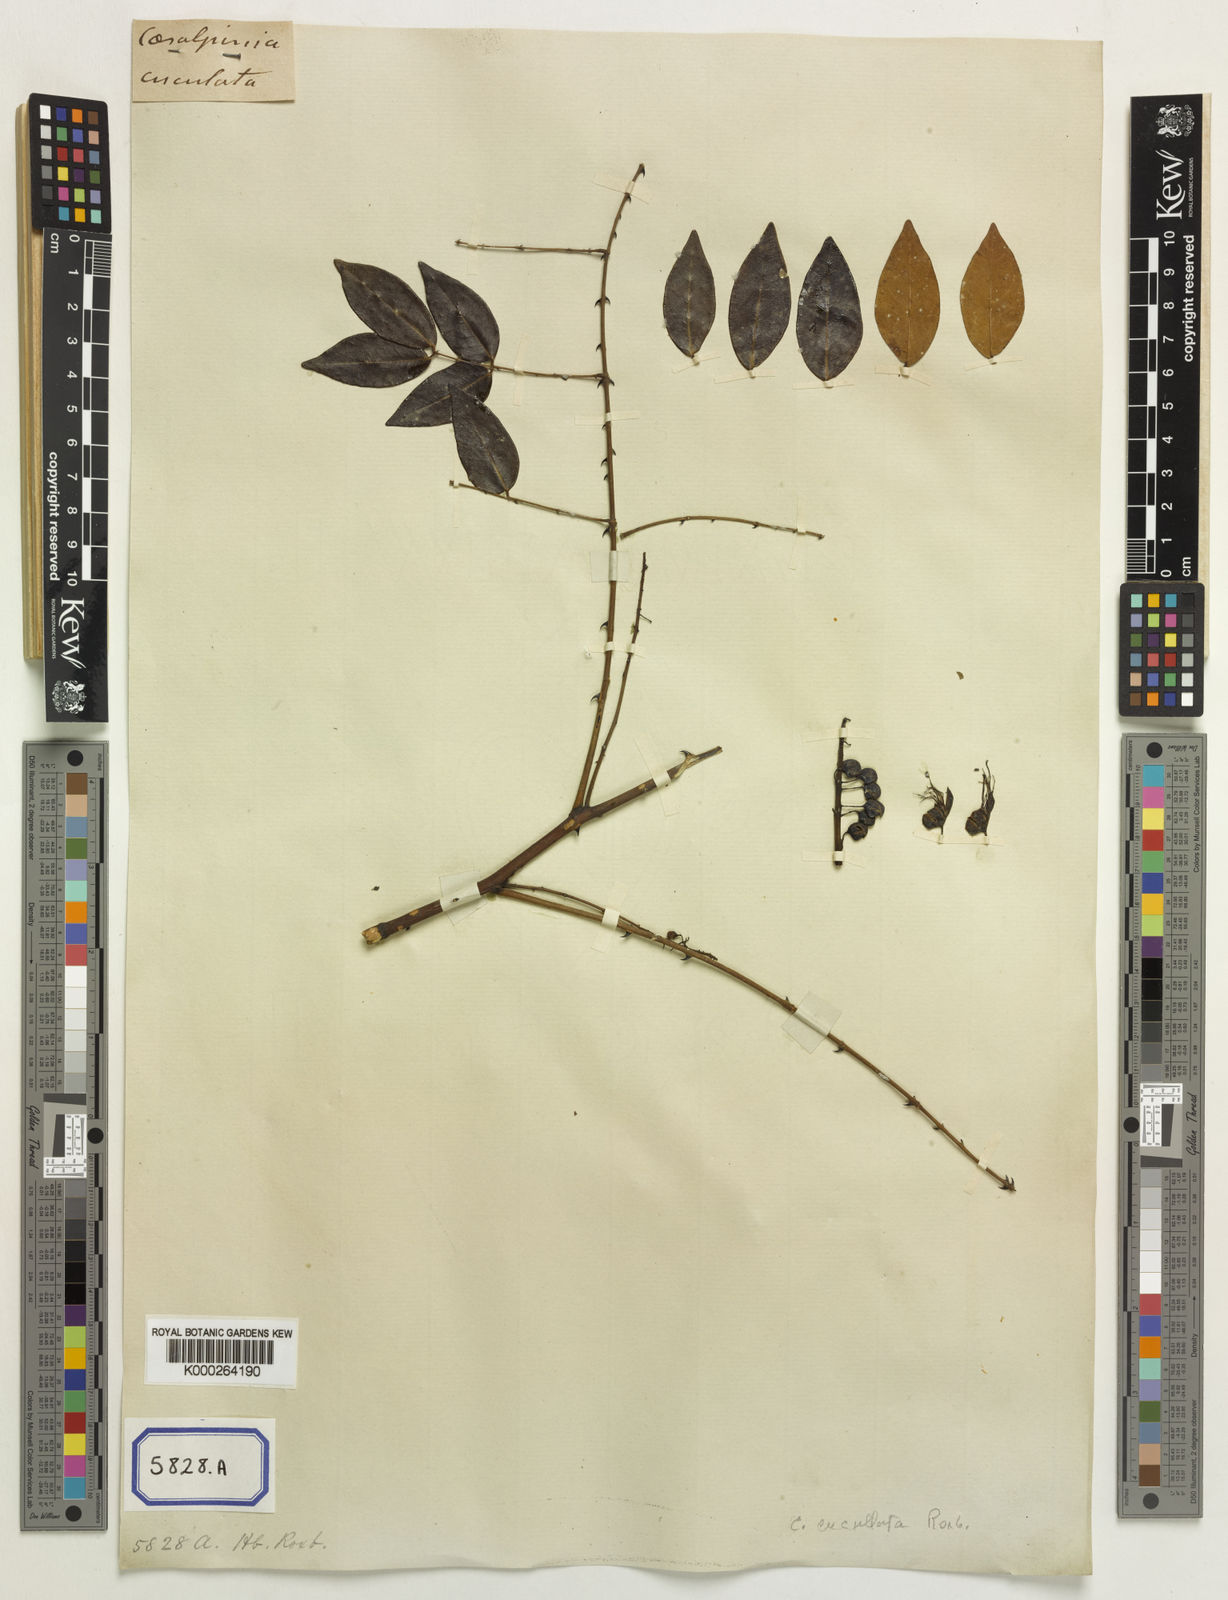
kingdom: Plantae
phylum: Tracheophyta
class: Magnoliopsida
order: Fabales
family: Fabaceae
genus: Mezoneuron
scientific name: Mezoneuron cucullatum
